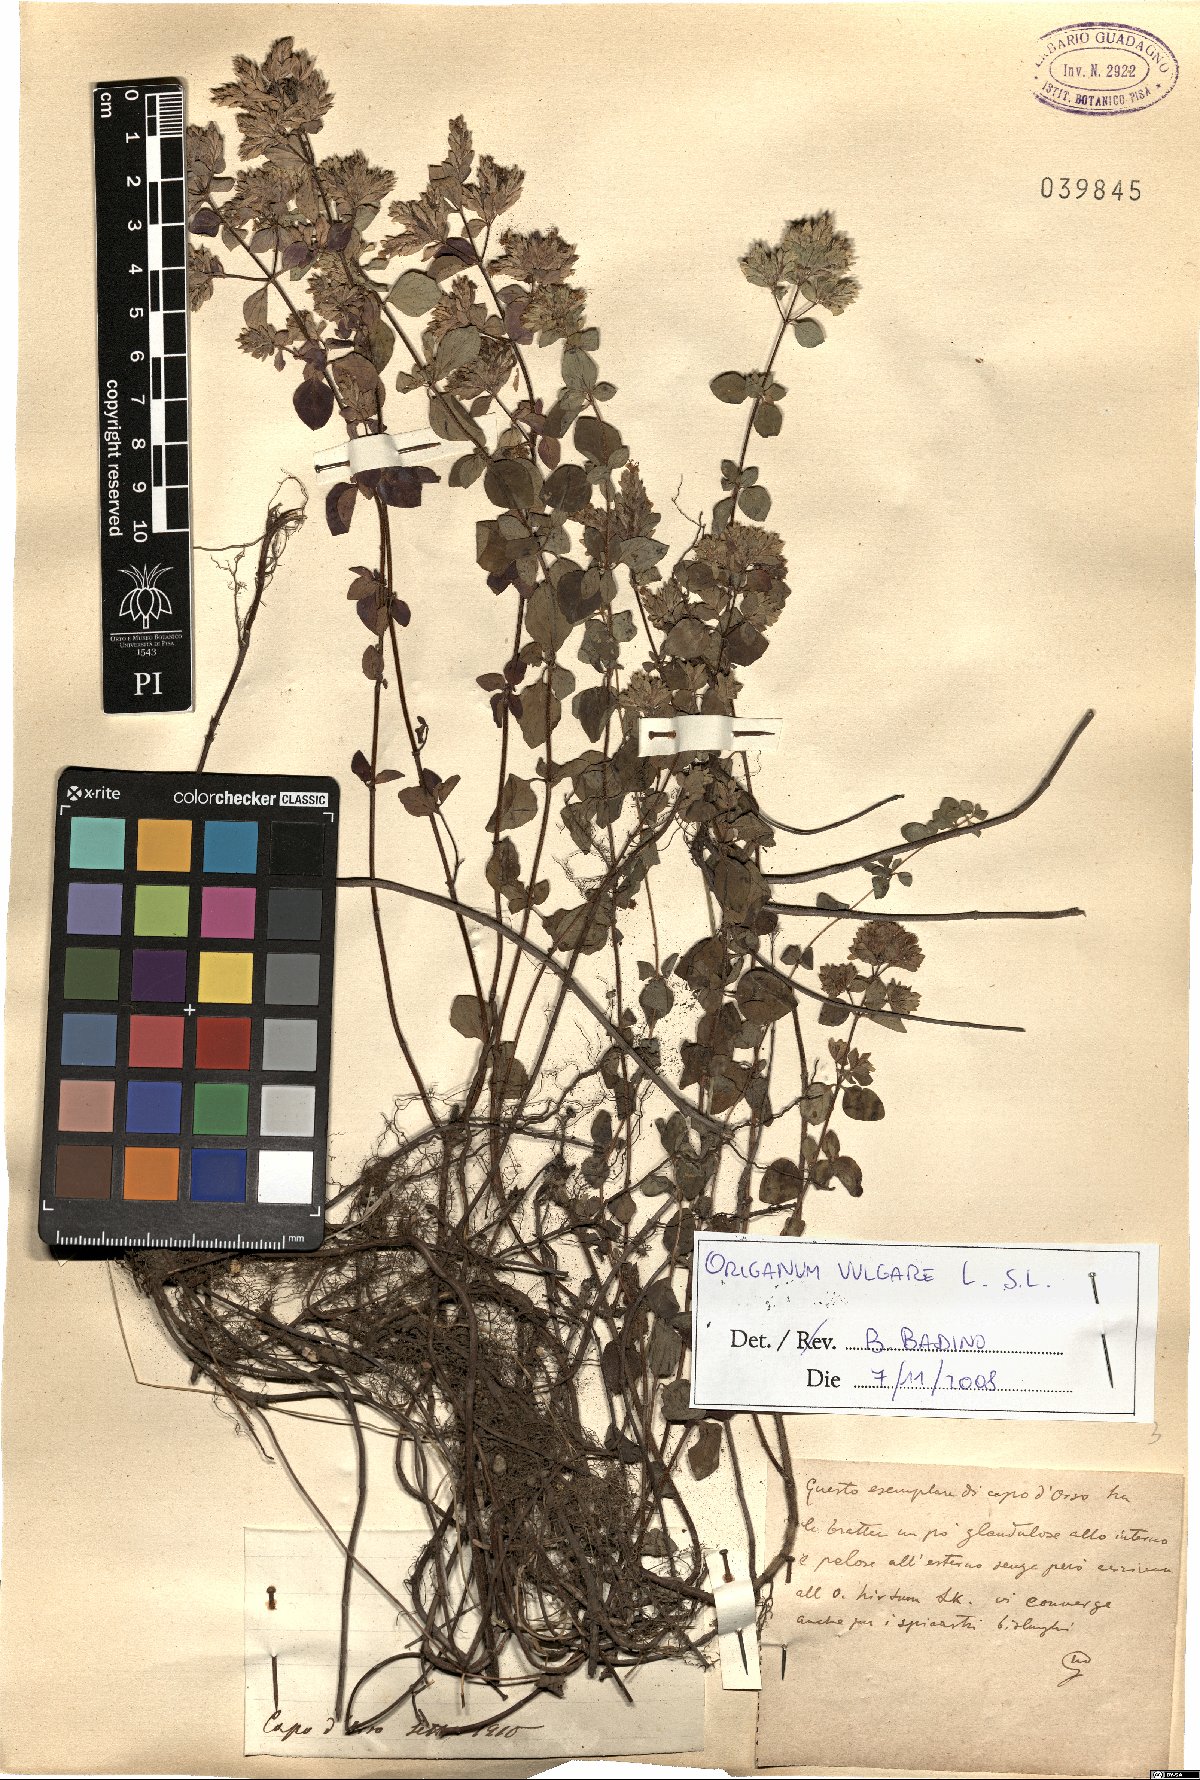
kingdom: Plantae
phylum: Tracheophyta
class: Magnoliopsida
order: Lamiales
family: Lamiaceae
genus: Origanum
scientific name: Origanum vulgare
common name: Wild marjoram
